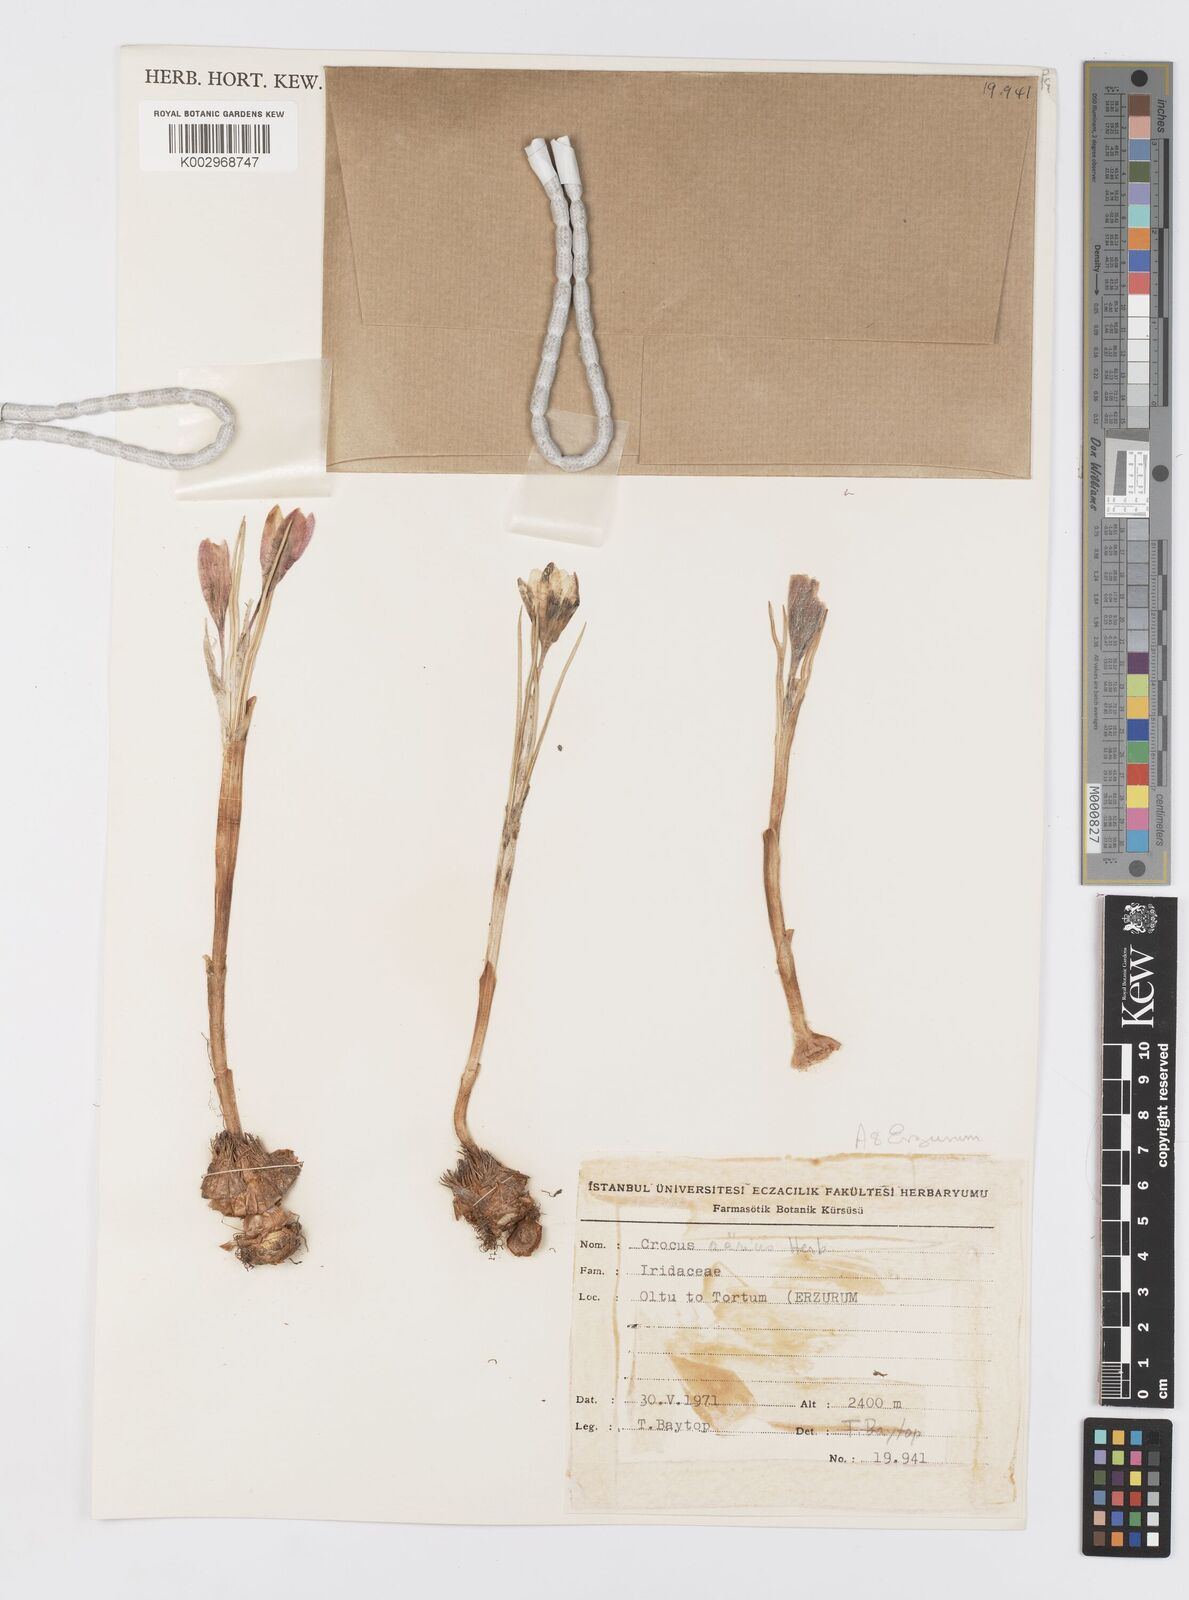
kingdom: Plantae
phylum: Tracheophyta
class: Liliopsida
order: Asparagales
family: Iridaceae
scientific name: Iridaceae
